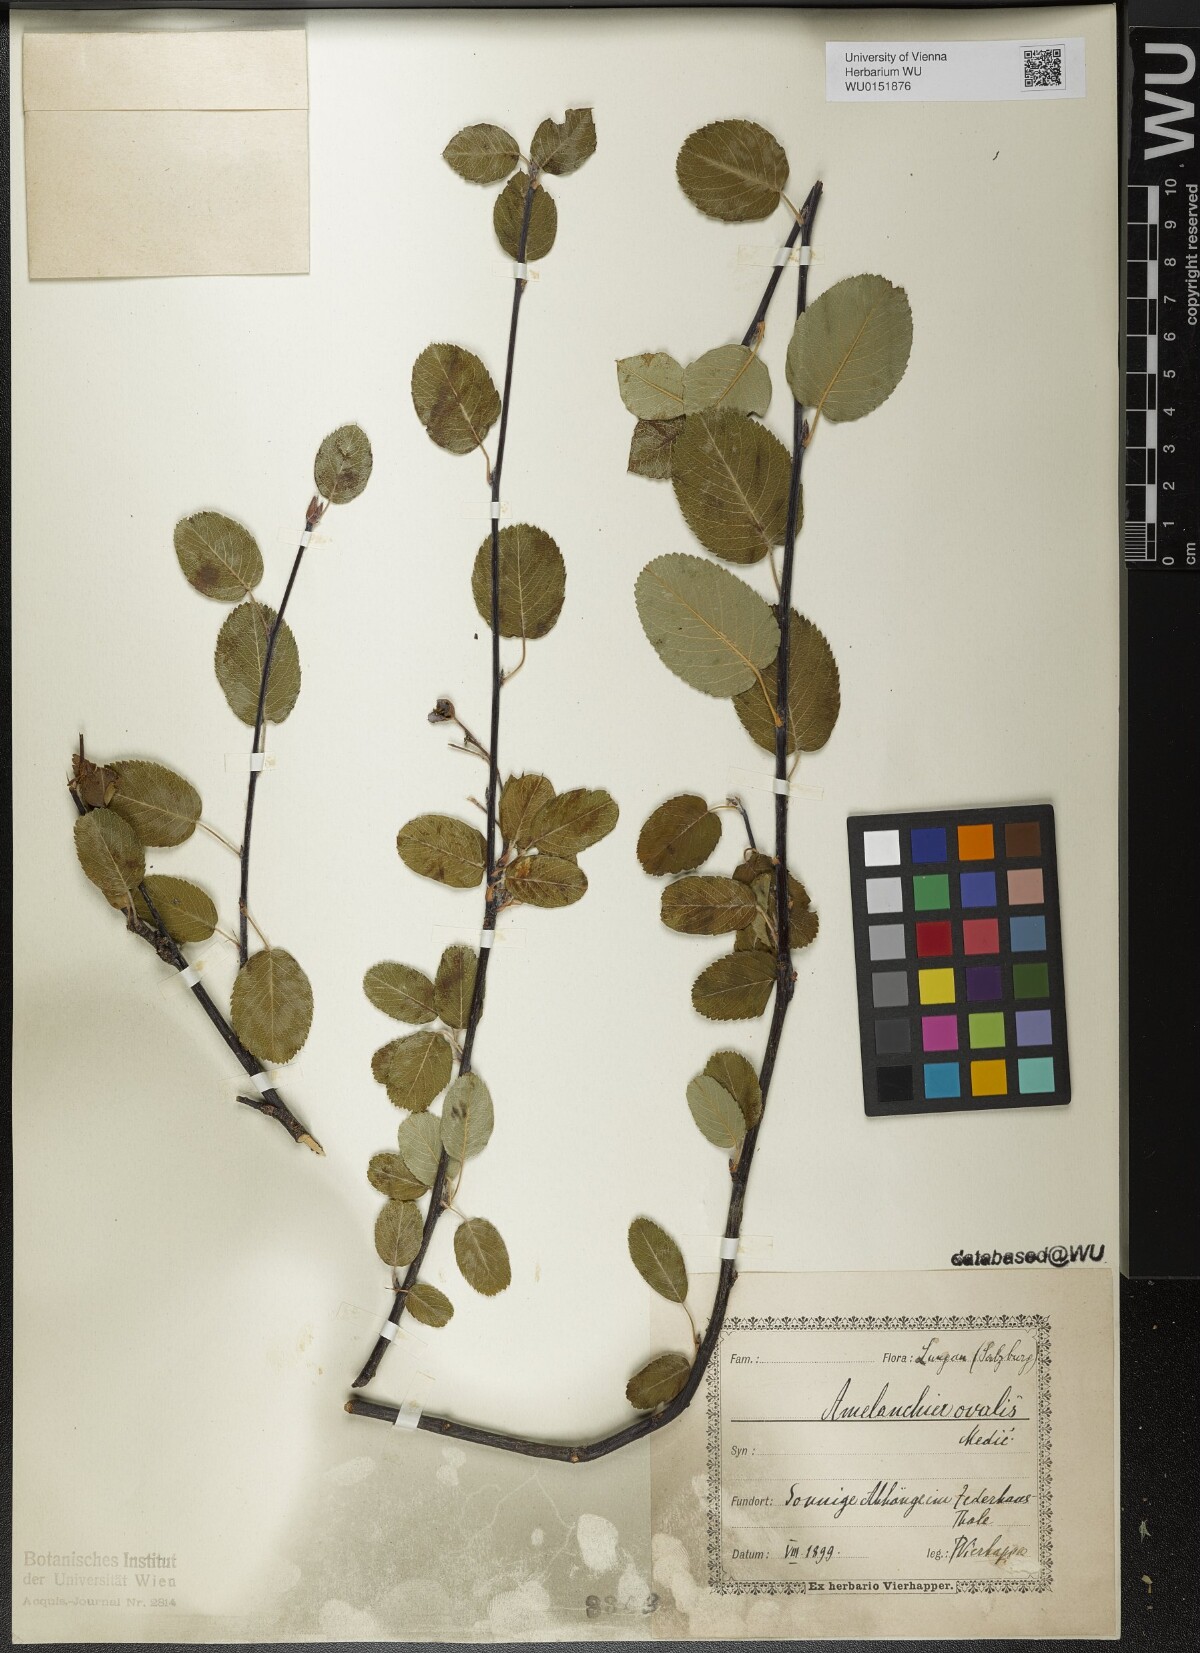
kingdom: Plantae
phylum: Tracheophyta
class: Magnoliopsida
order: Rosales
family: Rosaceae
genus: Amelanchier
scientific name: Amelanchier ovalis
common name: Serviceberry
